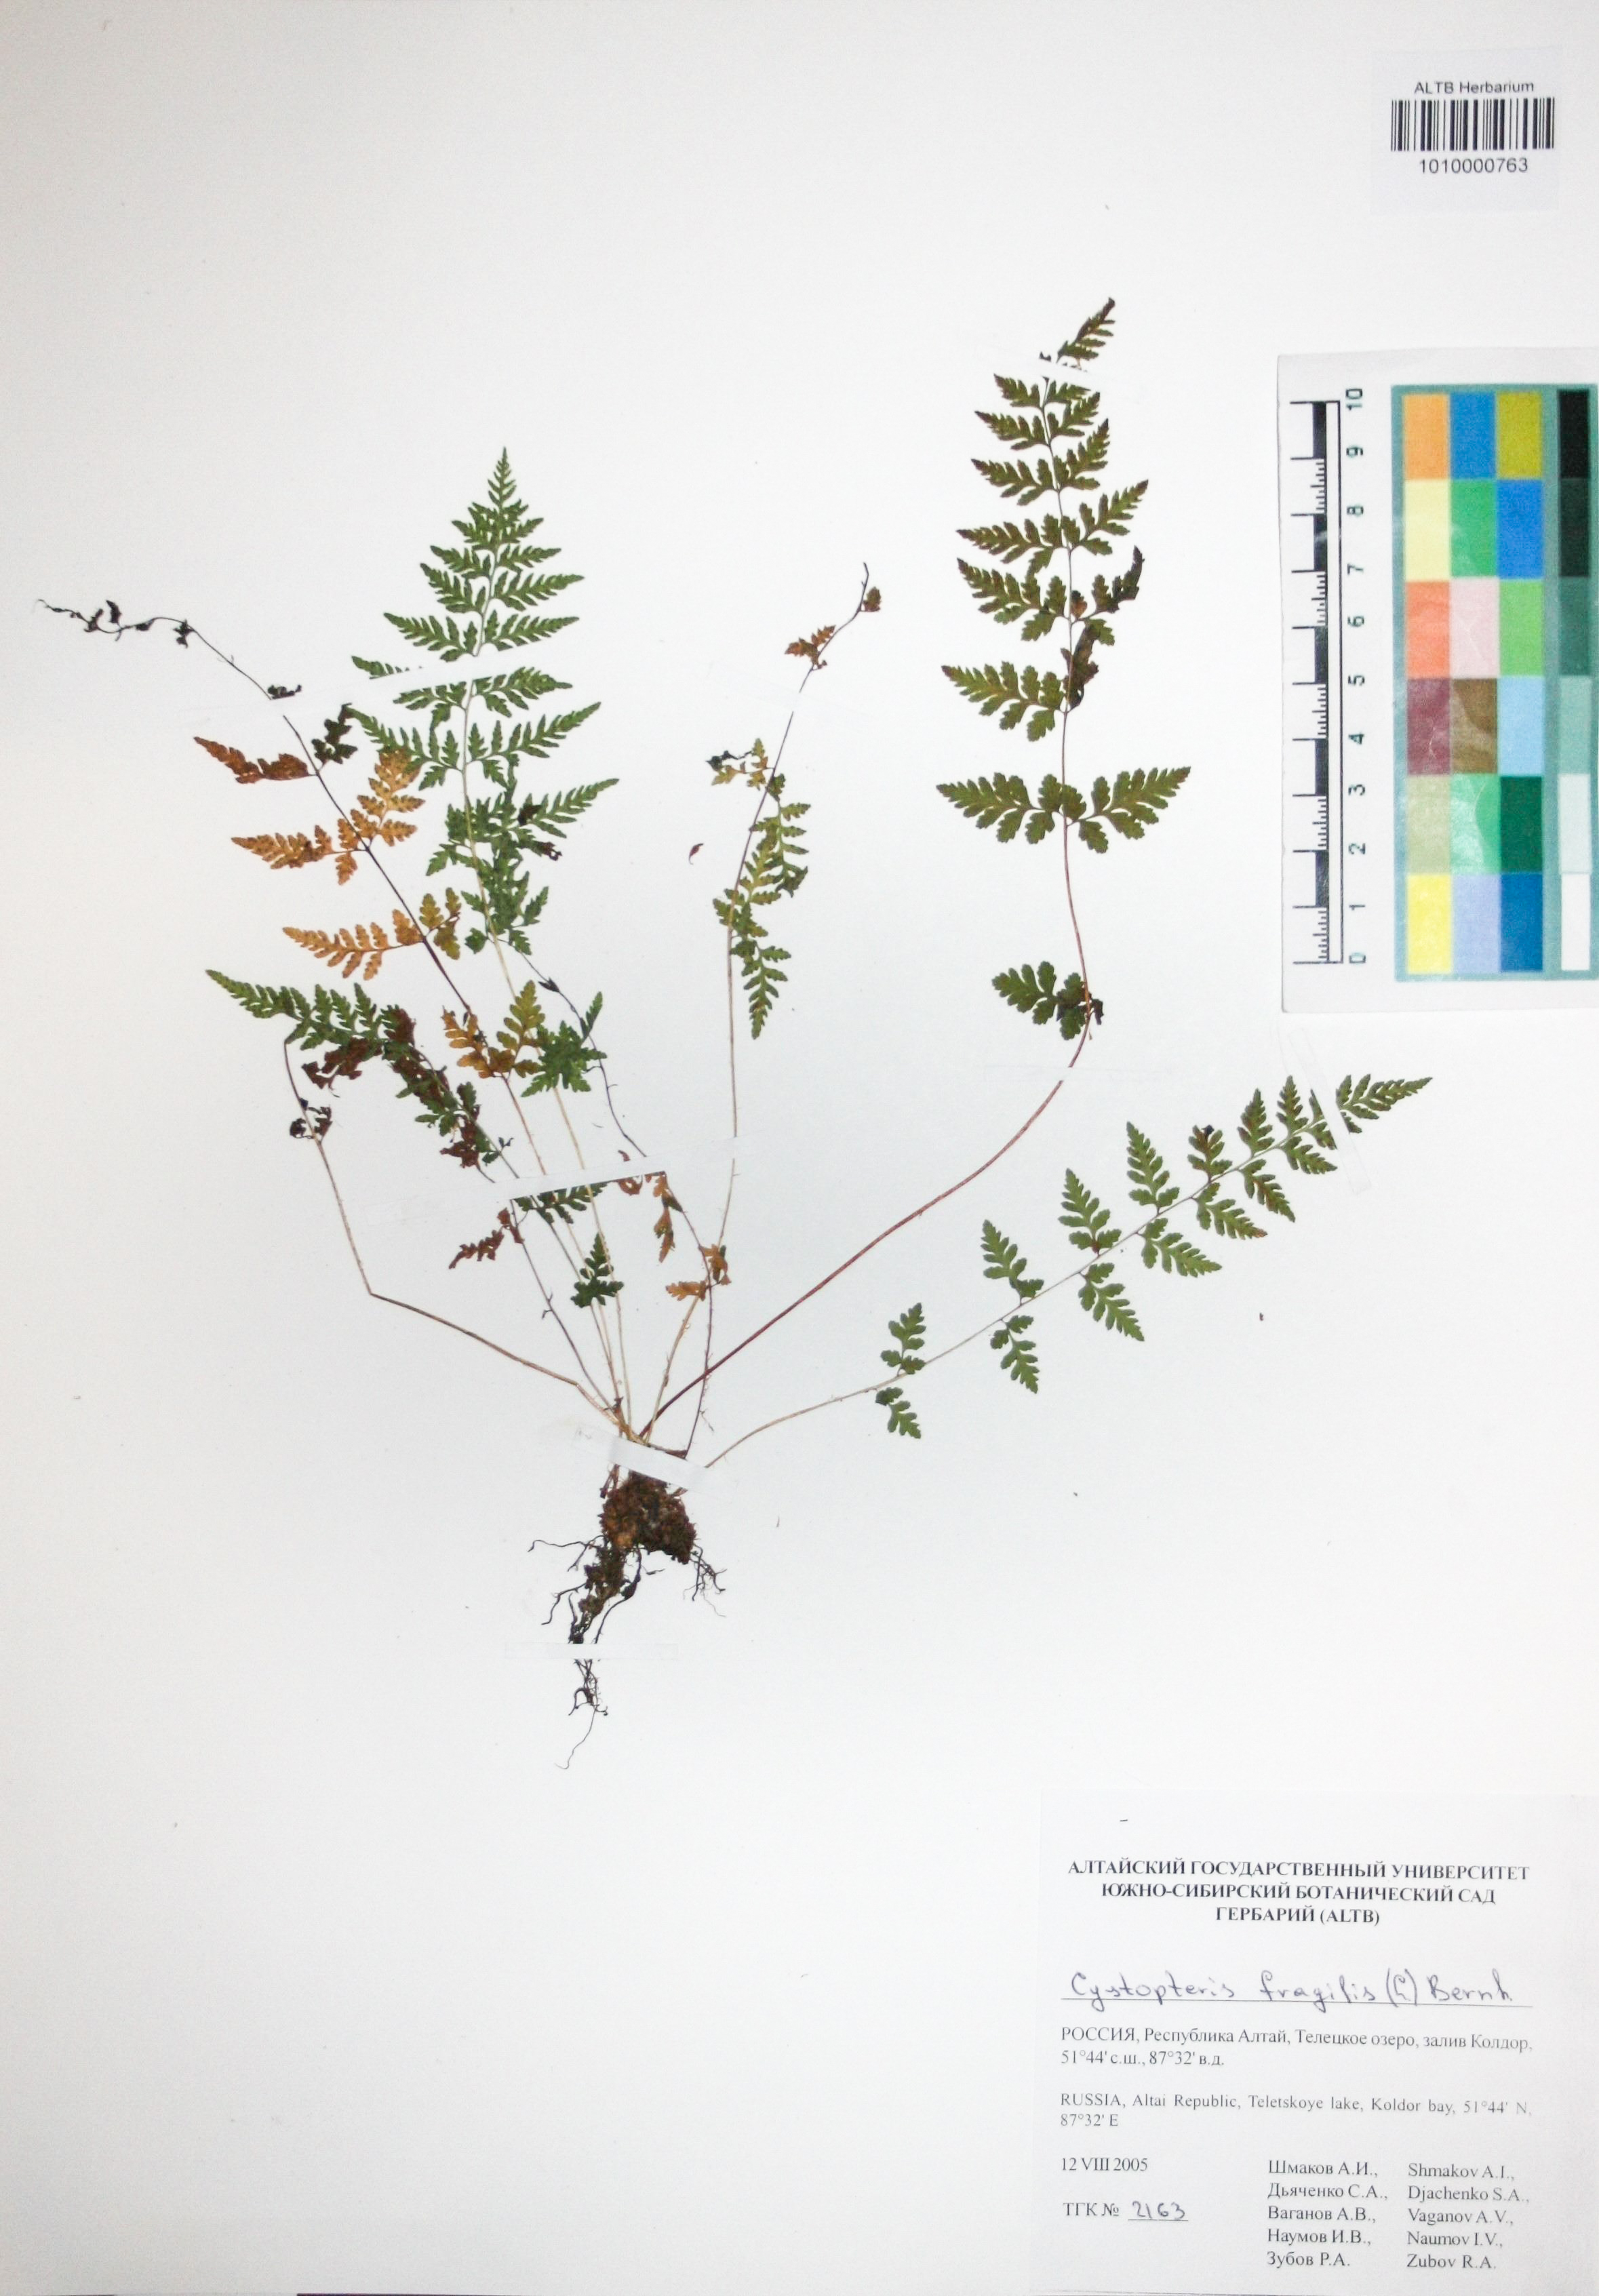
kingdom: Plantae
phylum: Tracheophyta
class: Polypodiopsida
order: Polypodiales
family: Cystopteridaceae
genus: Cystopteris
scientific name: Cystopteris fragilis
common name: Brittle bladder fern
